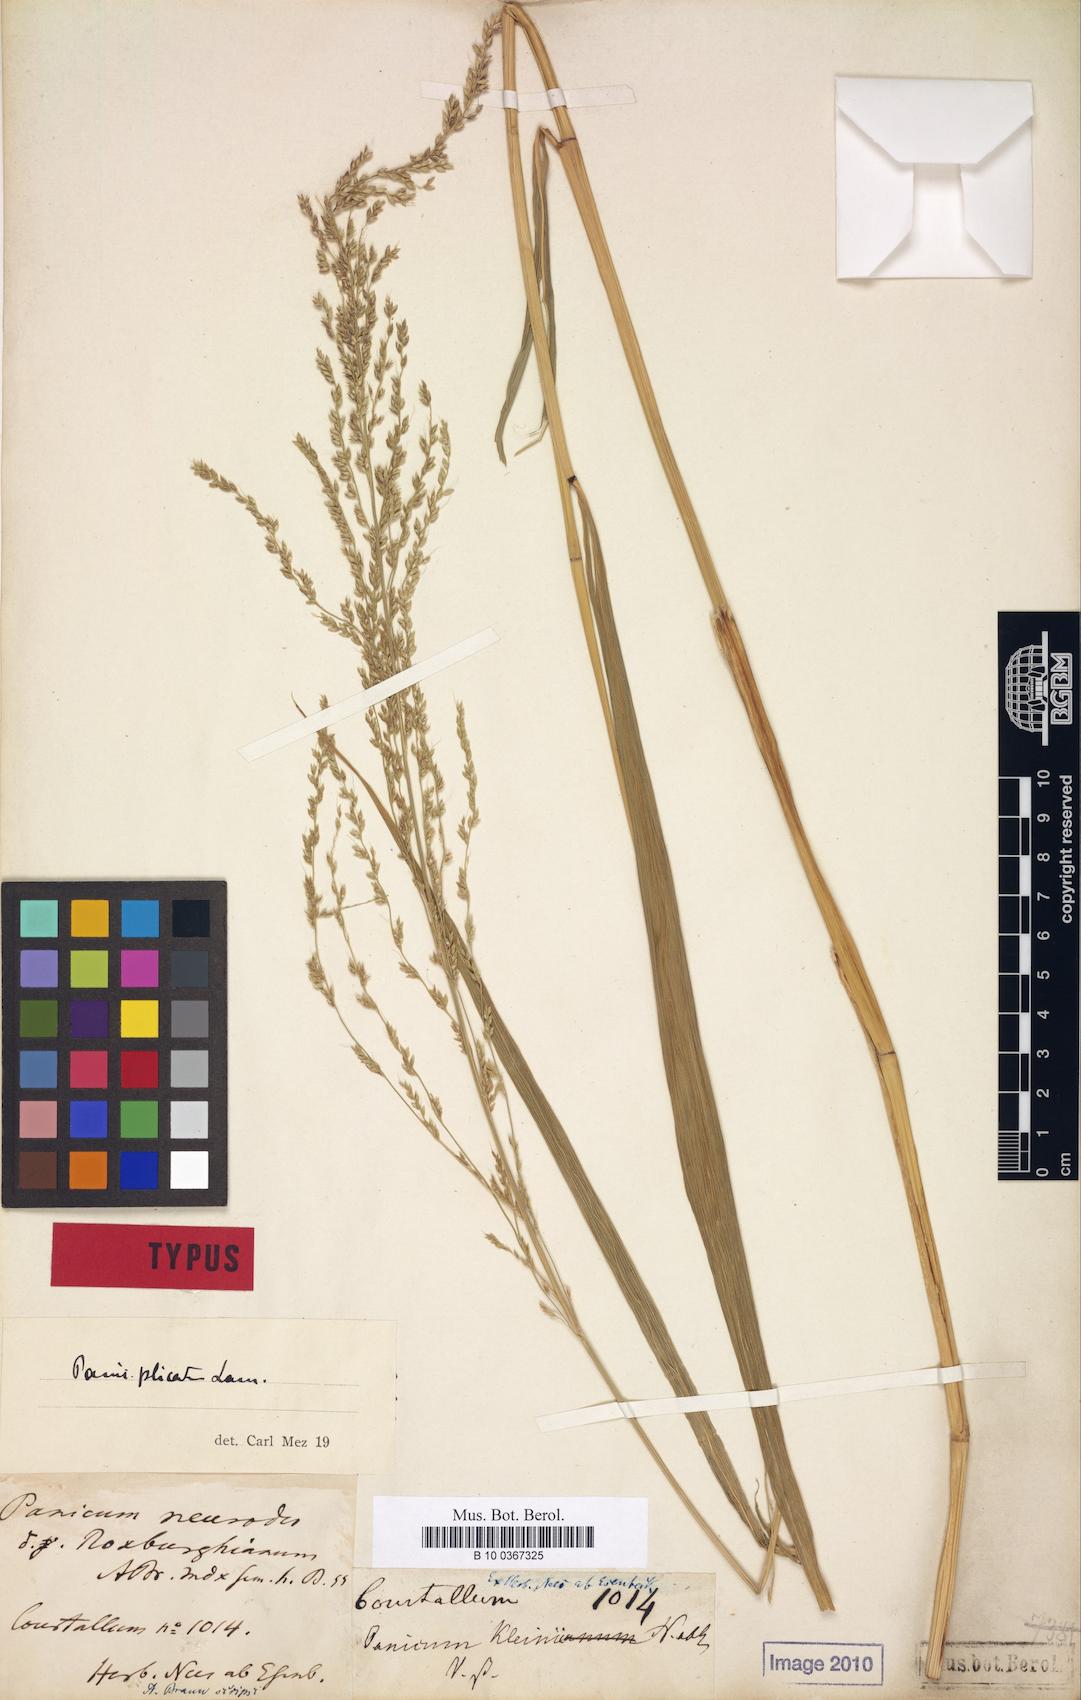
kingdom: Plantae
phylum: Tracheophyta
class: Liliopsida
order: Poales
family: Poaceae
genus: Setaria
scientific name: Setaria palmifolia
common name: Broadleaved bristlegrass
